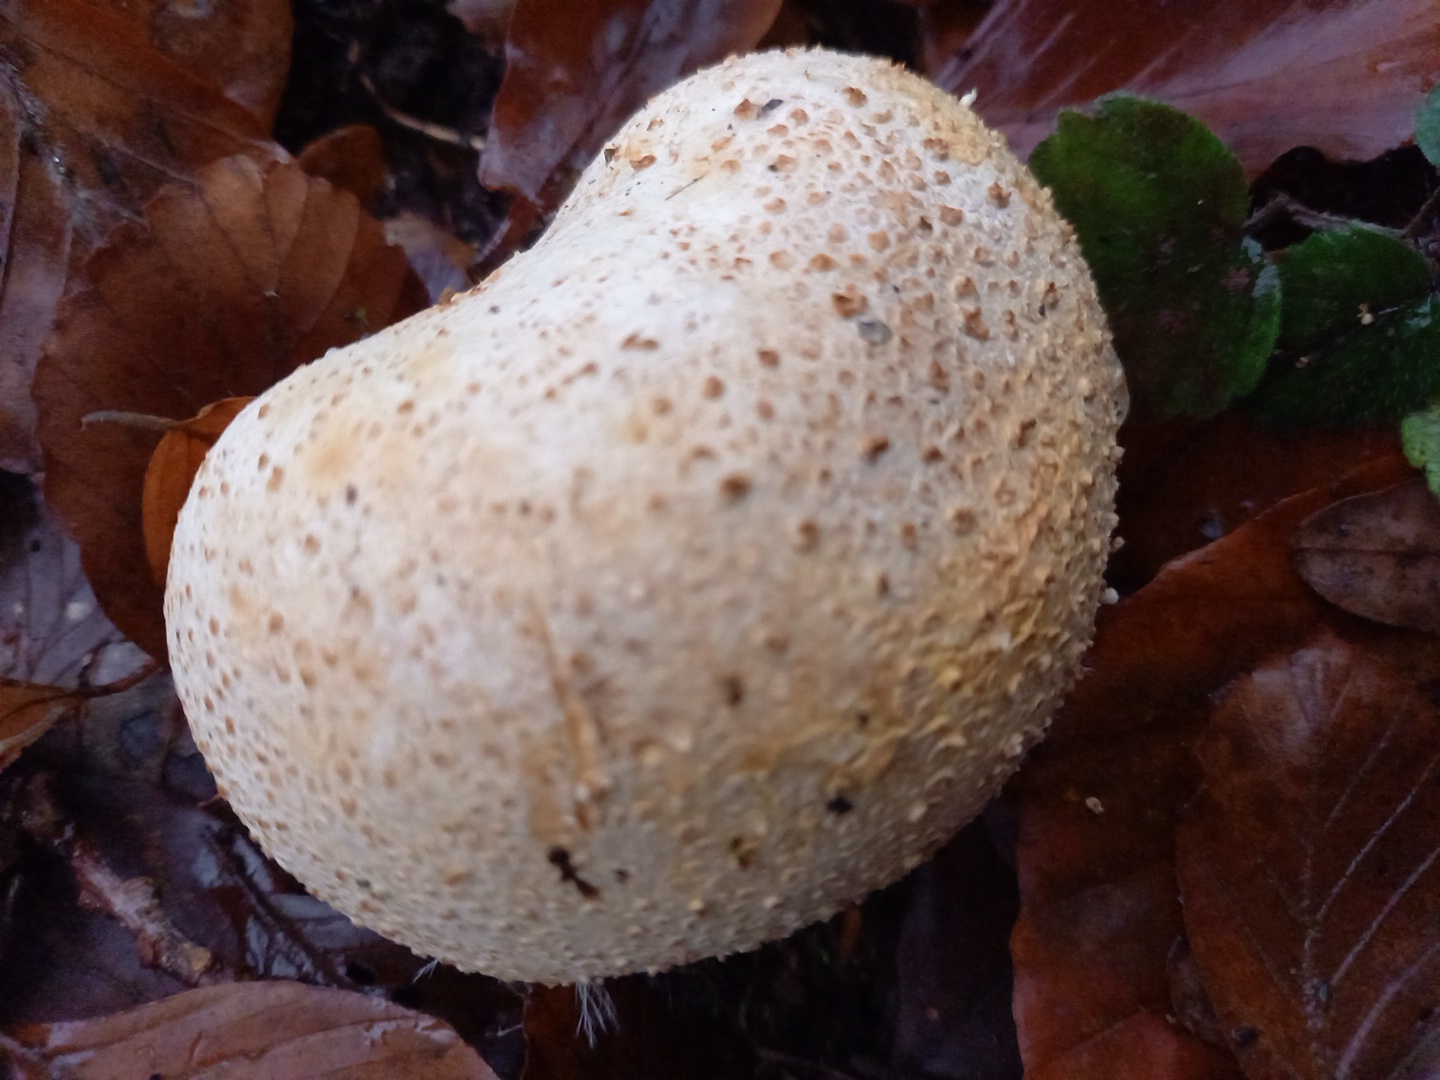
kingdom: Fungi
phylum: Basidiomycota
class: Agaricomycetes
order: Boletales
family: Sclerodermataceae
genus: Scleroderma
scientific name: Scleroderma citrinum
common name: almindelig bruskbold
